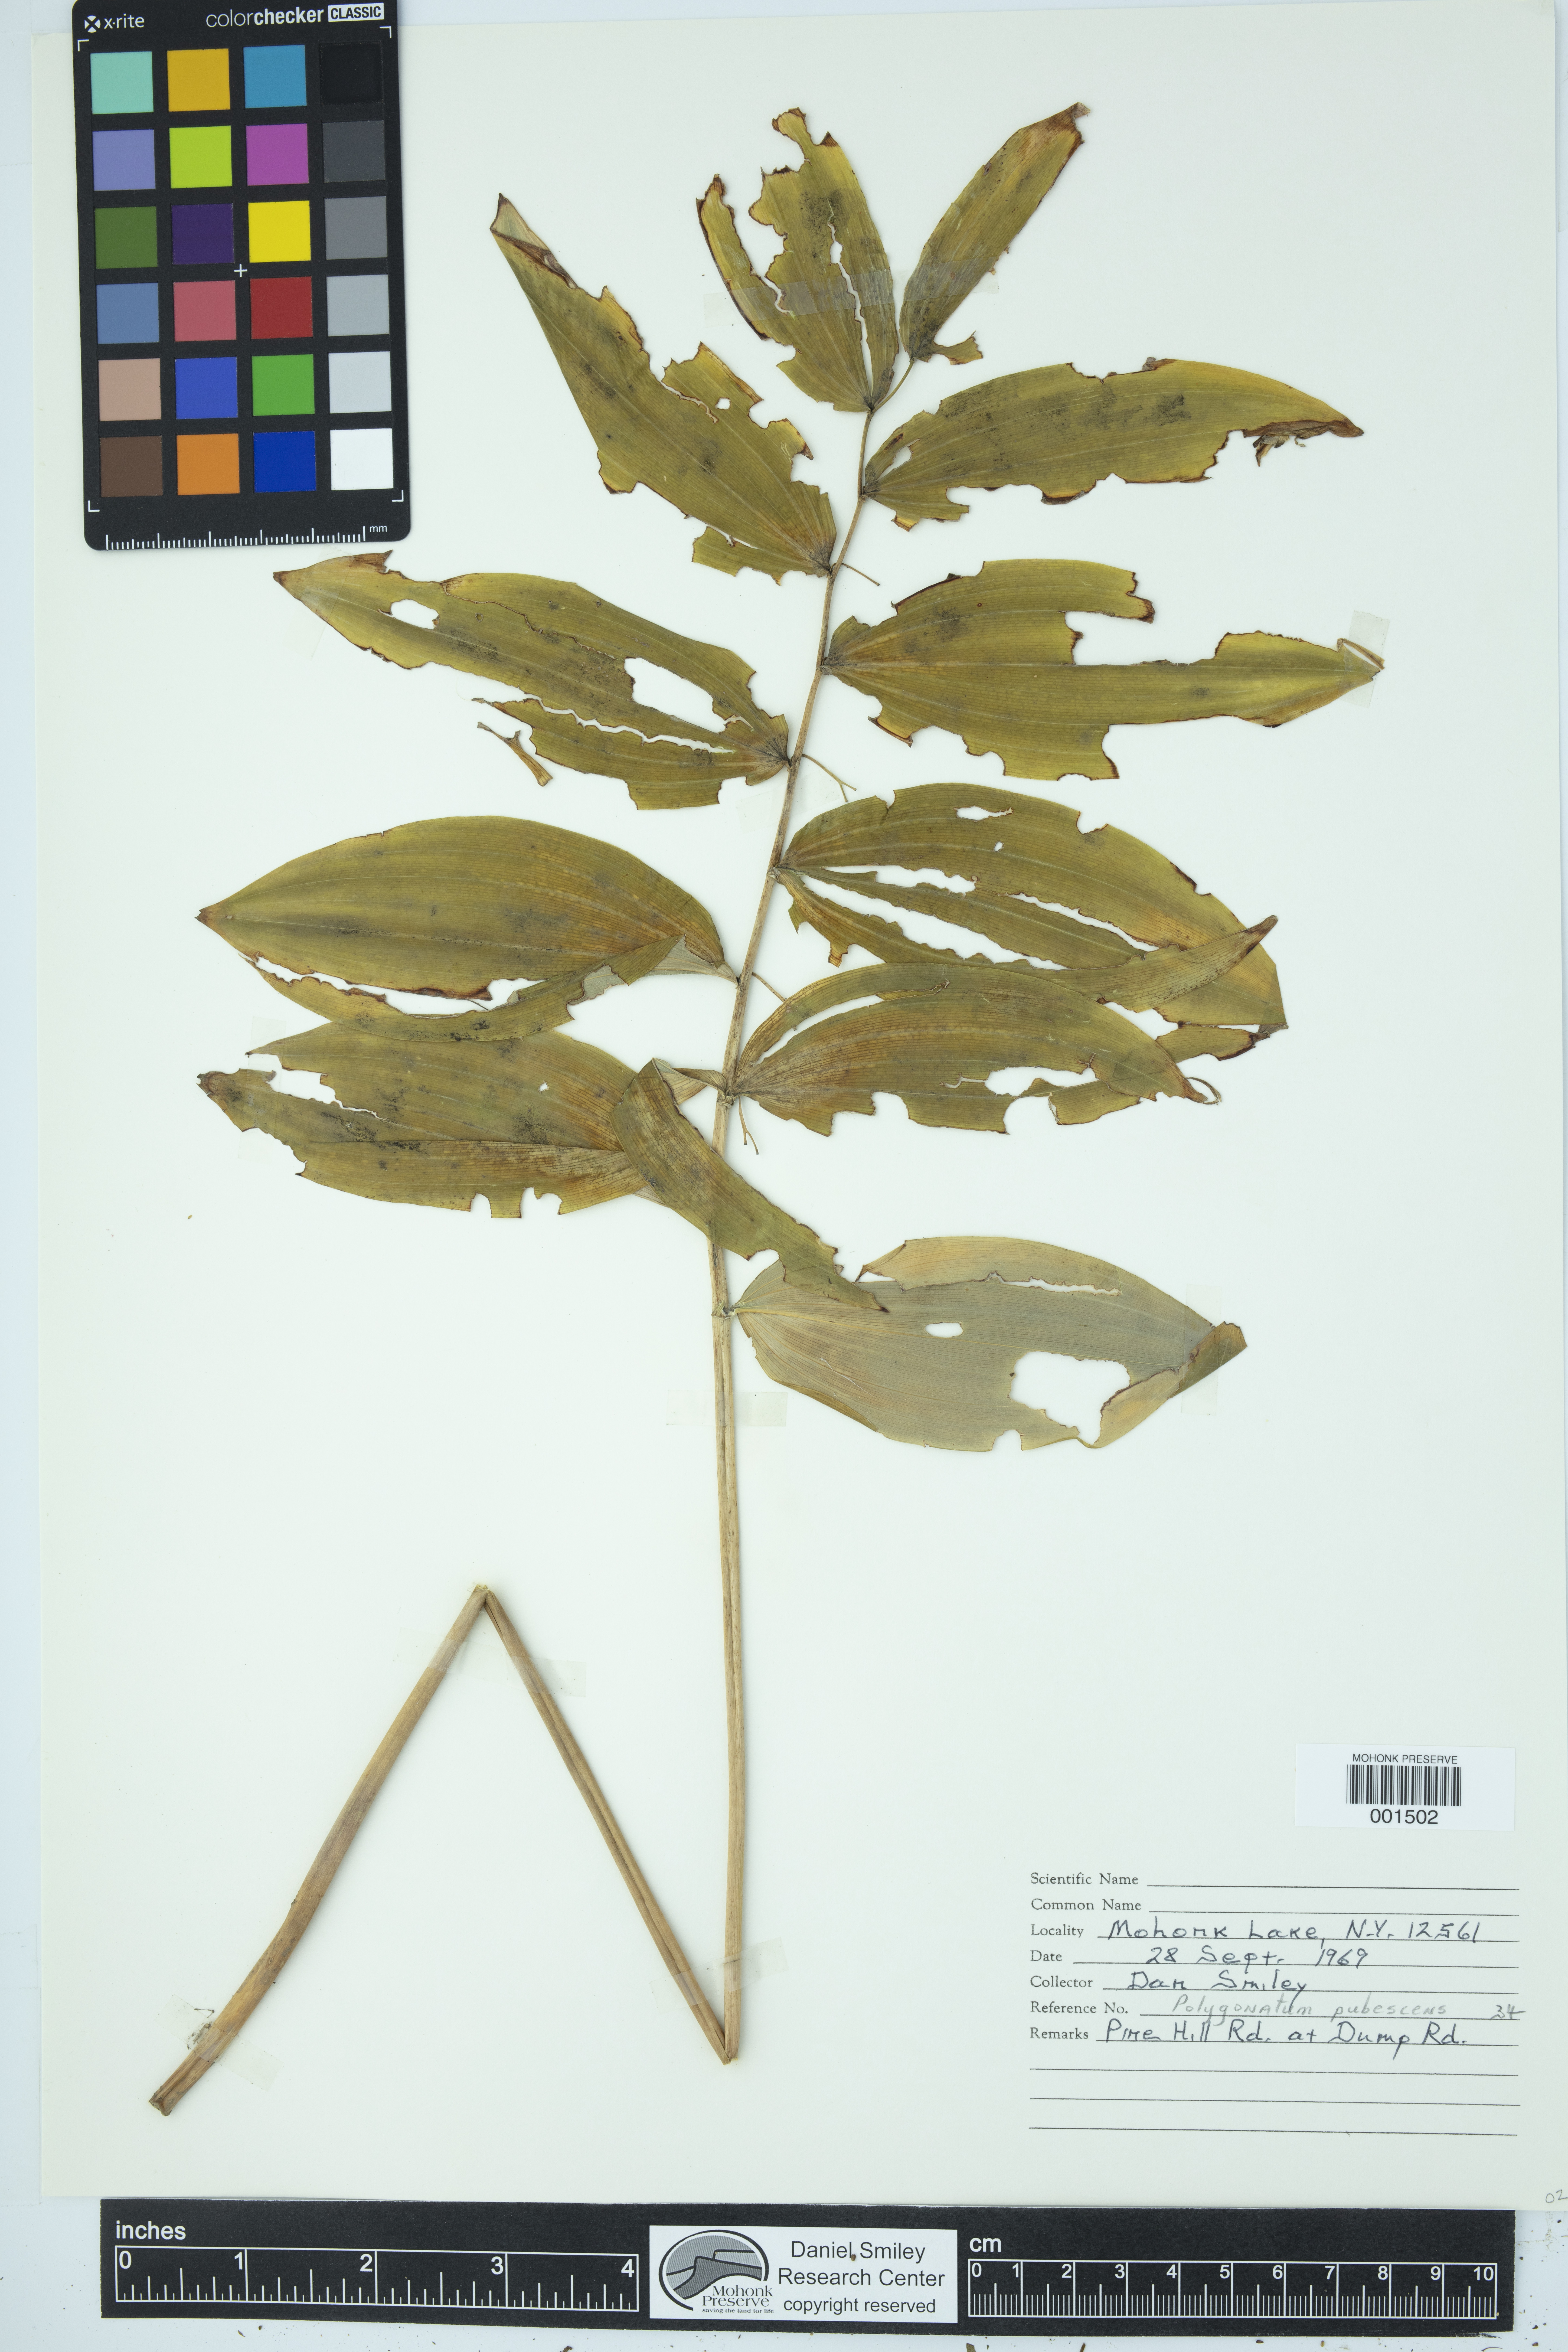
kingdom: Plantae
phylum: Tracheophyta
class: Liliopsida
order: Asparagales
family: Asparagaceae
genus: Polygonatum
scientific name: Polygonatum pubescens
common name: Downy solomon's seal
